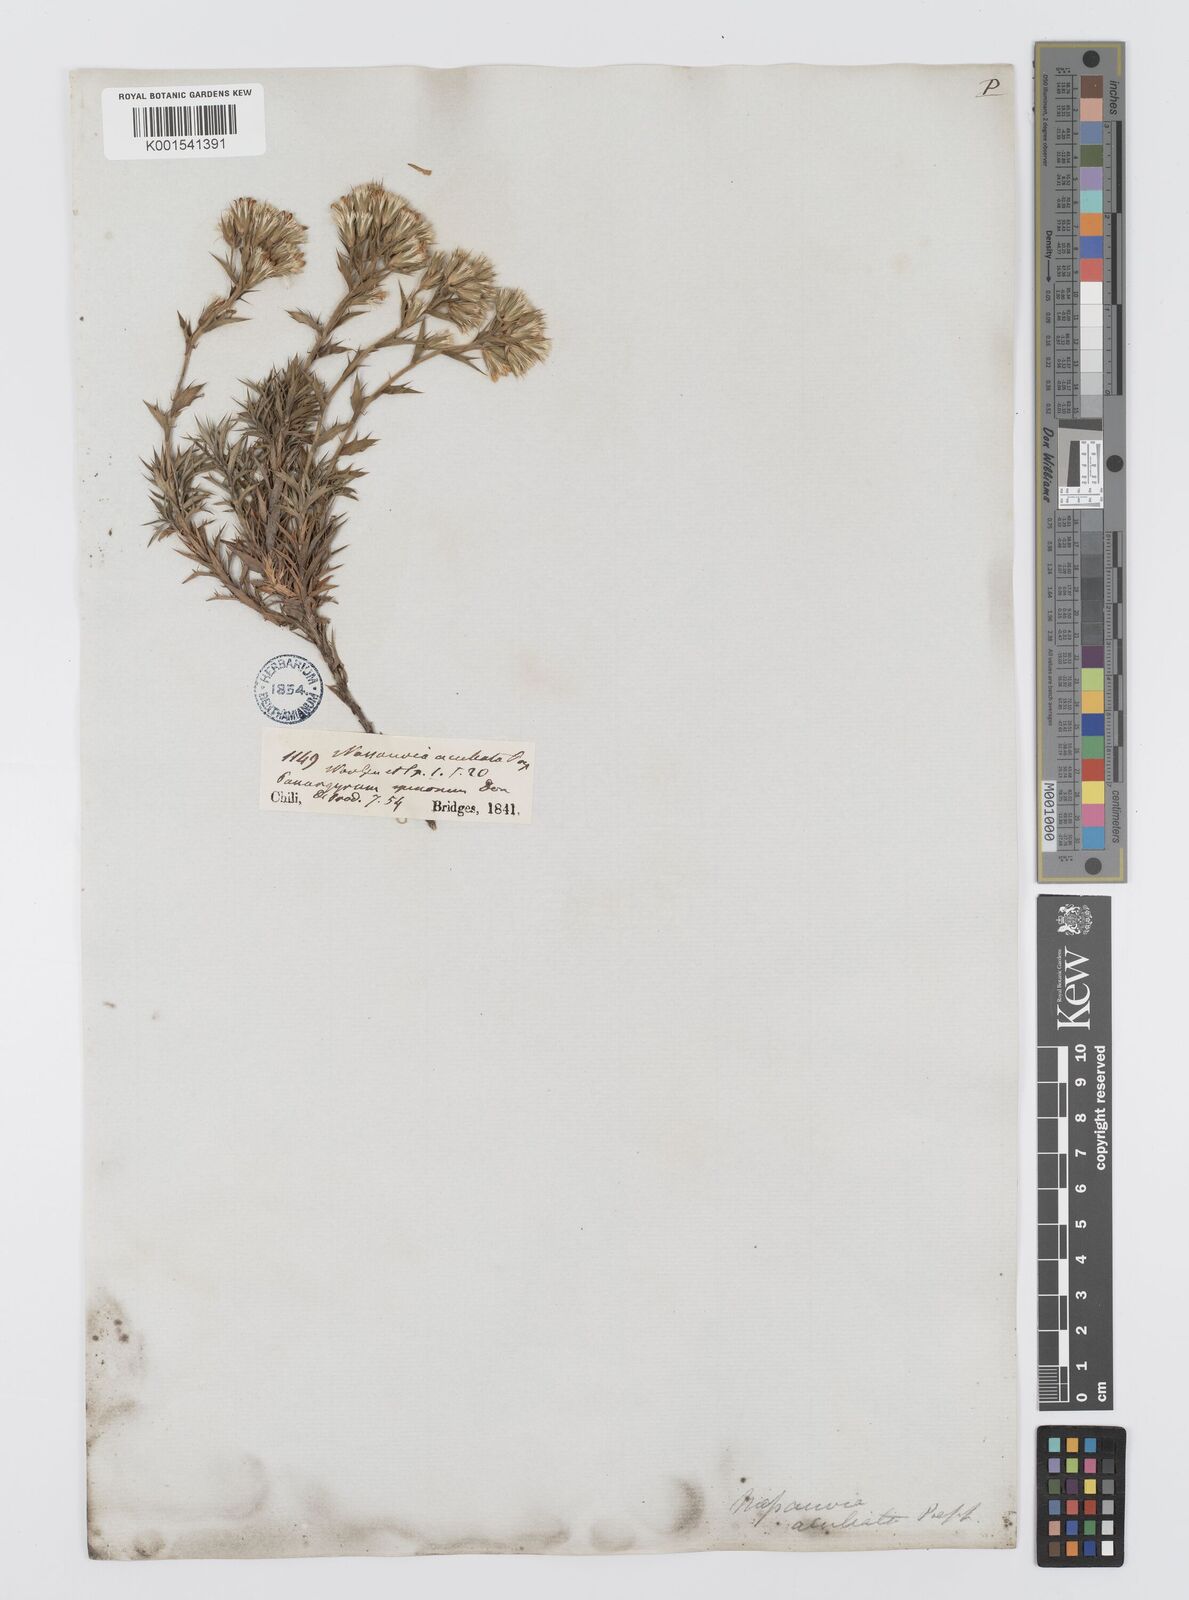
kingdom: Plantae
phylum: Tracheophyta
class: Magnoliopsida
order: Asterales
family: Asteraceae
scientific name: Asteraceae
